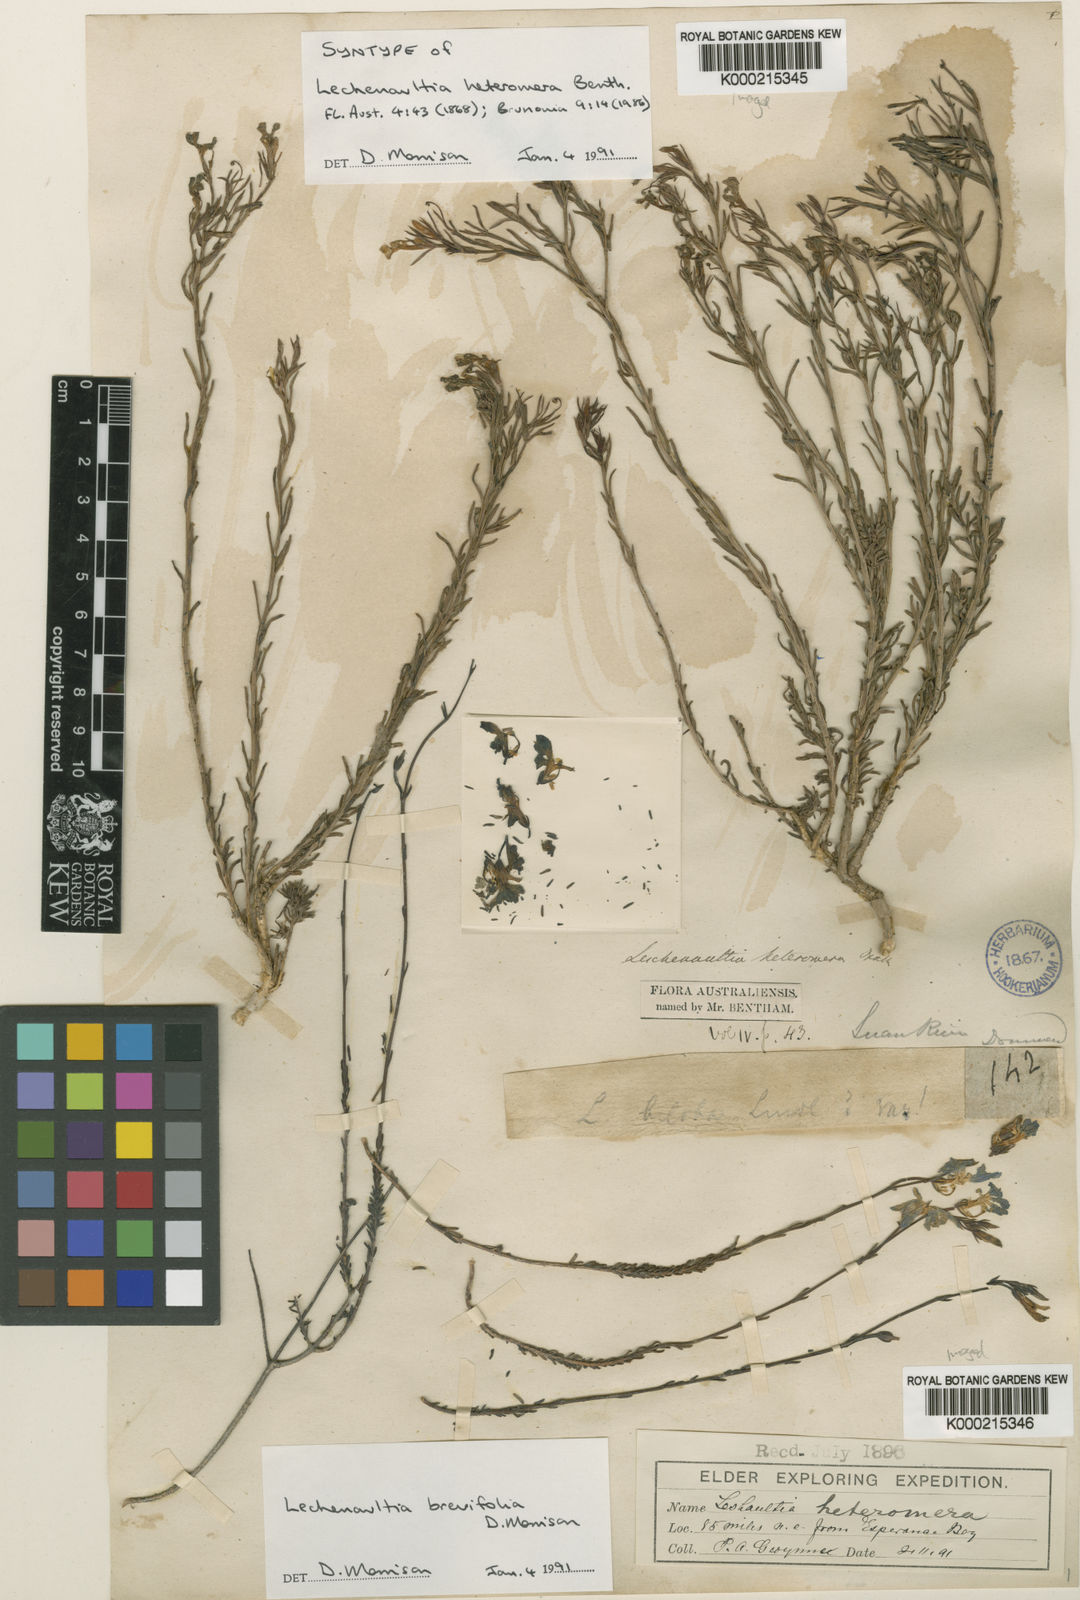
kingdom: Plantae
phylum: Tracheophyta
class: Magnoliopsida
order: Asterales
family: Goodeniaceae
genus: Leschenaultia
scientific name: Leschenaultia brevifolia
